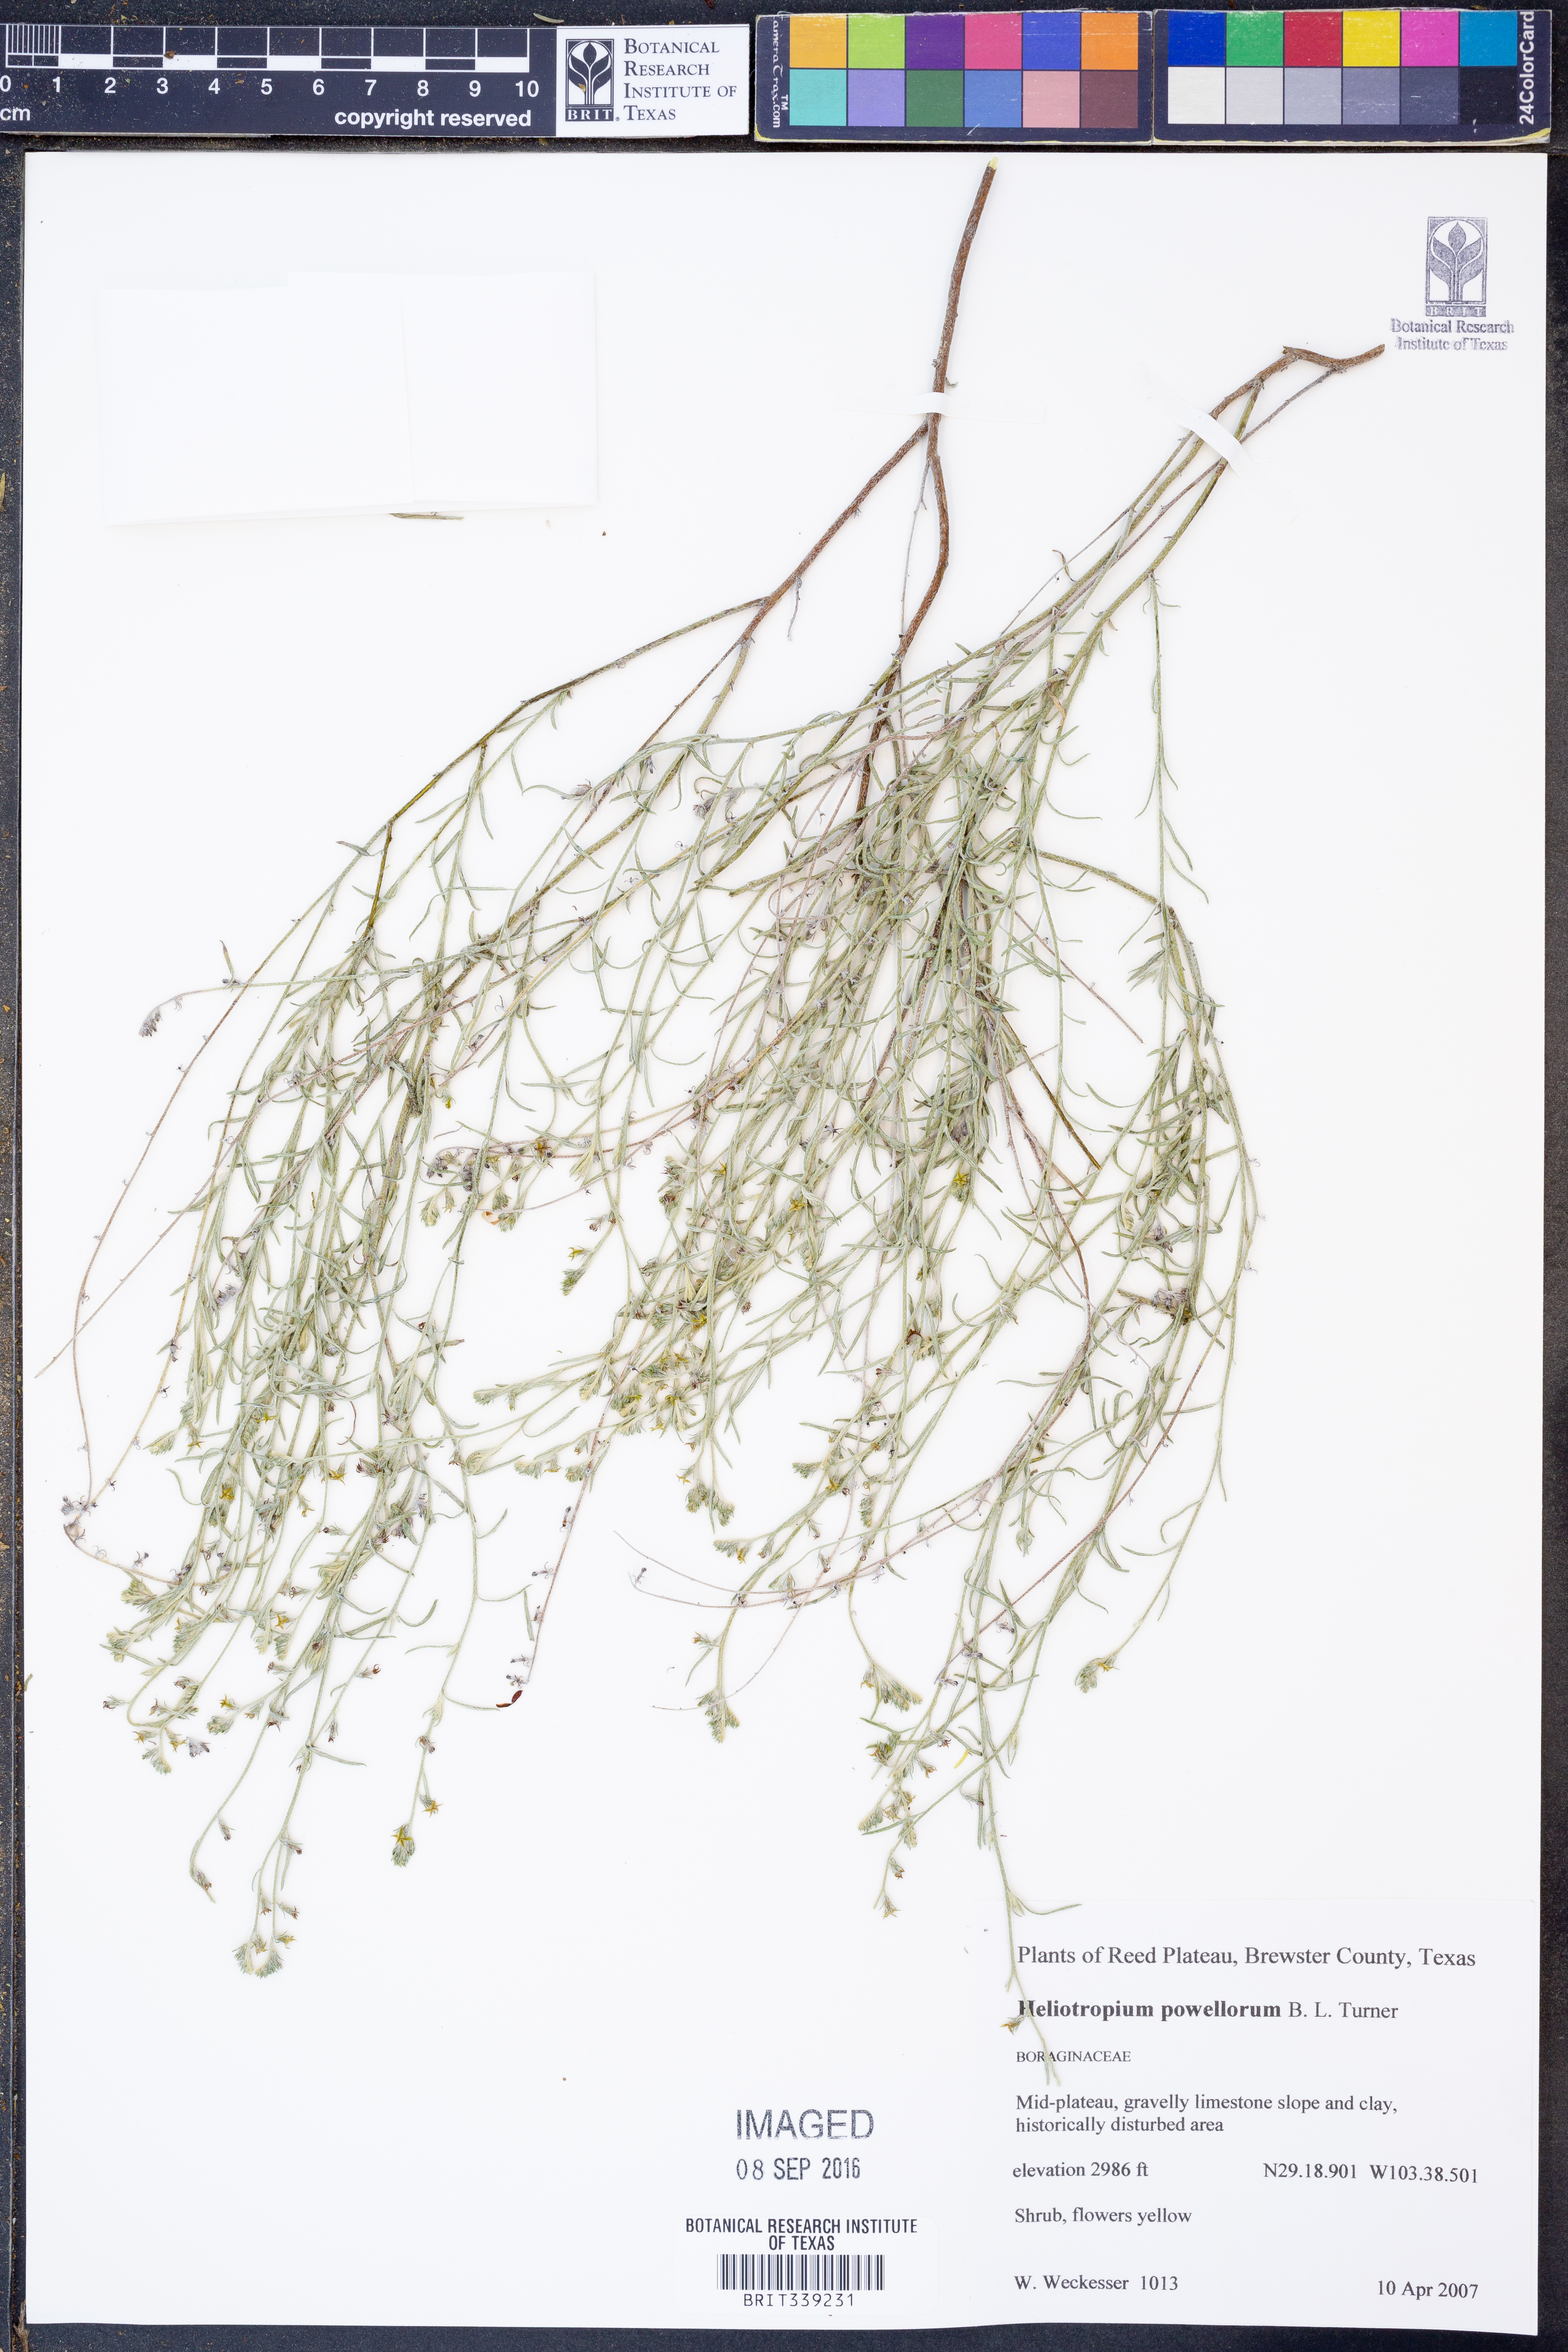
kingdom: Plantae
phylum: Tracheophyta
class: Magnoliopsida
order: Boraginales
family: Heliotropiaceae
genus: Euploca
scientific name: Euploca powelliorum
